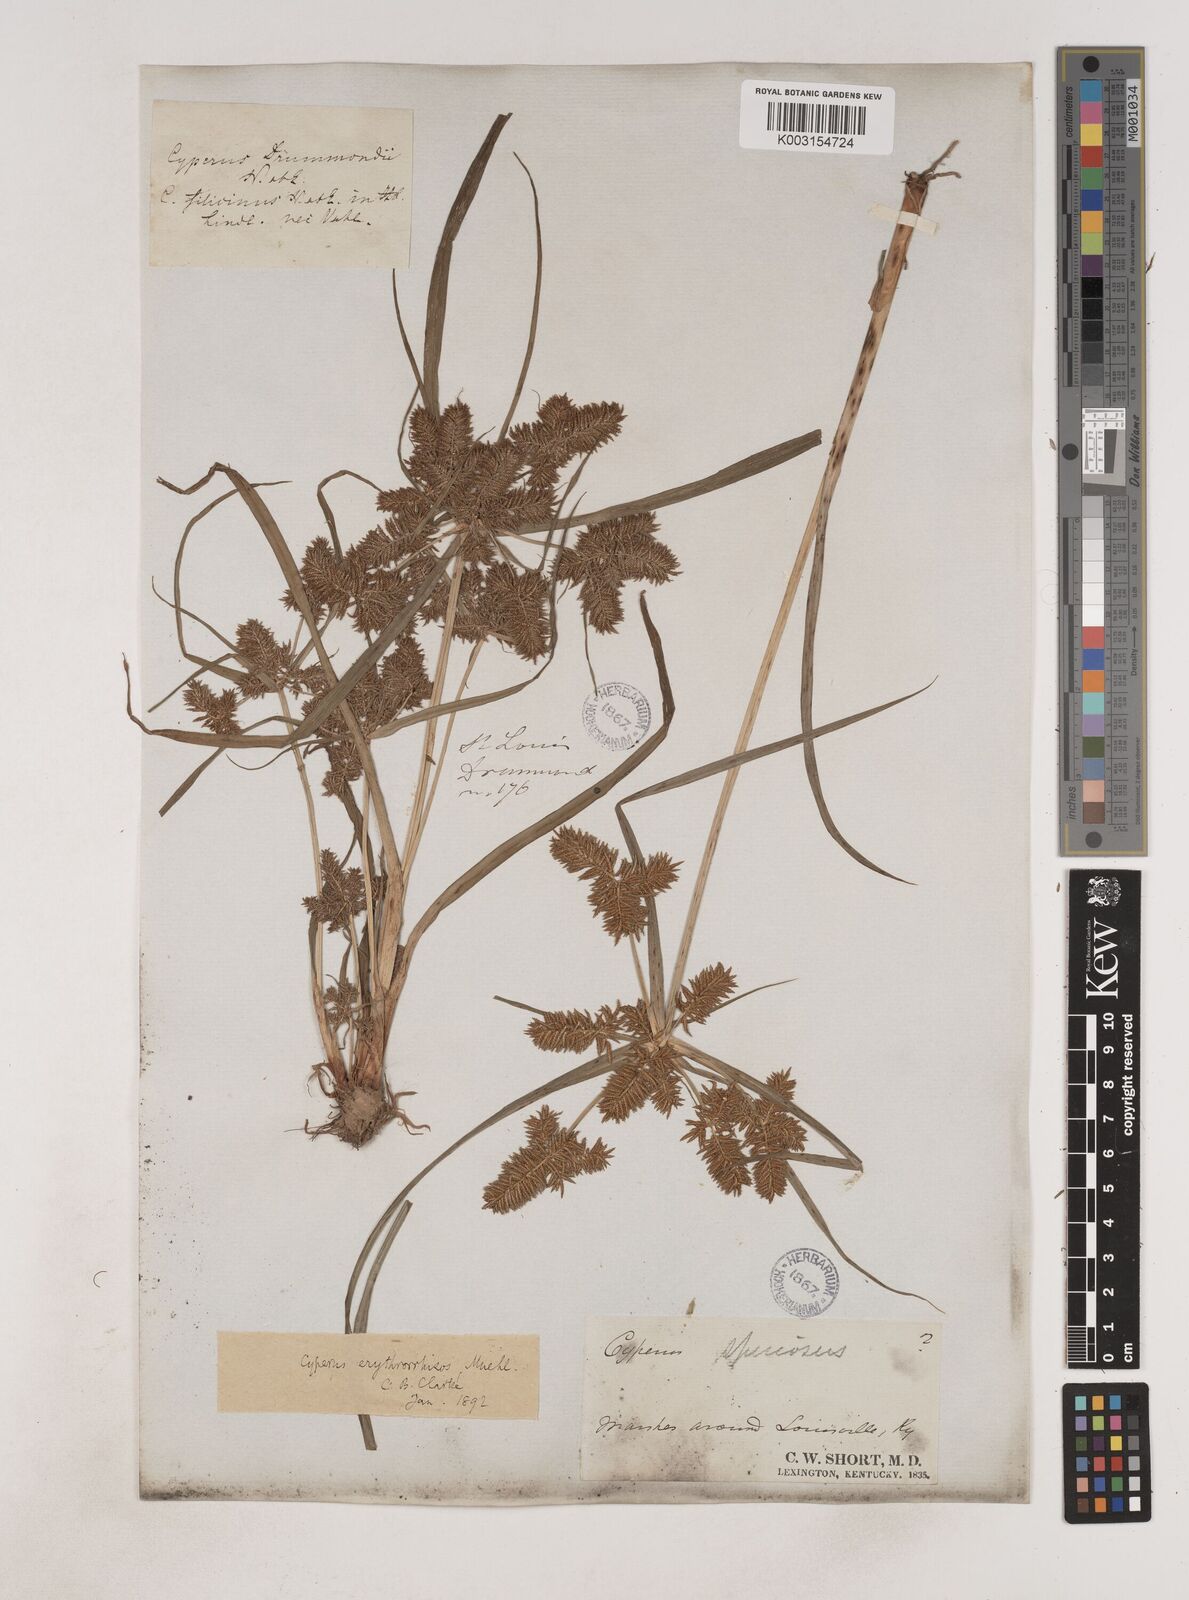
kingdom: Plantae
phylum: Tracheophyta
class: Liliopsida
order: Poales
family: Cyperaceae
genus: Cyperus
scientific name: Cyperus erythrorhizos
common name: Red-root flat sedge
